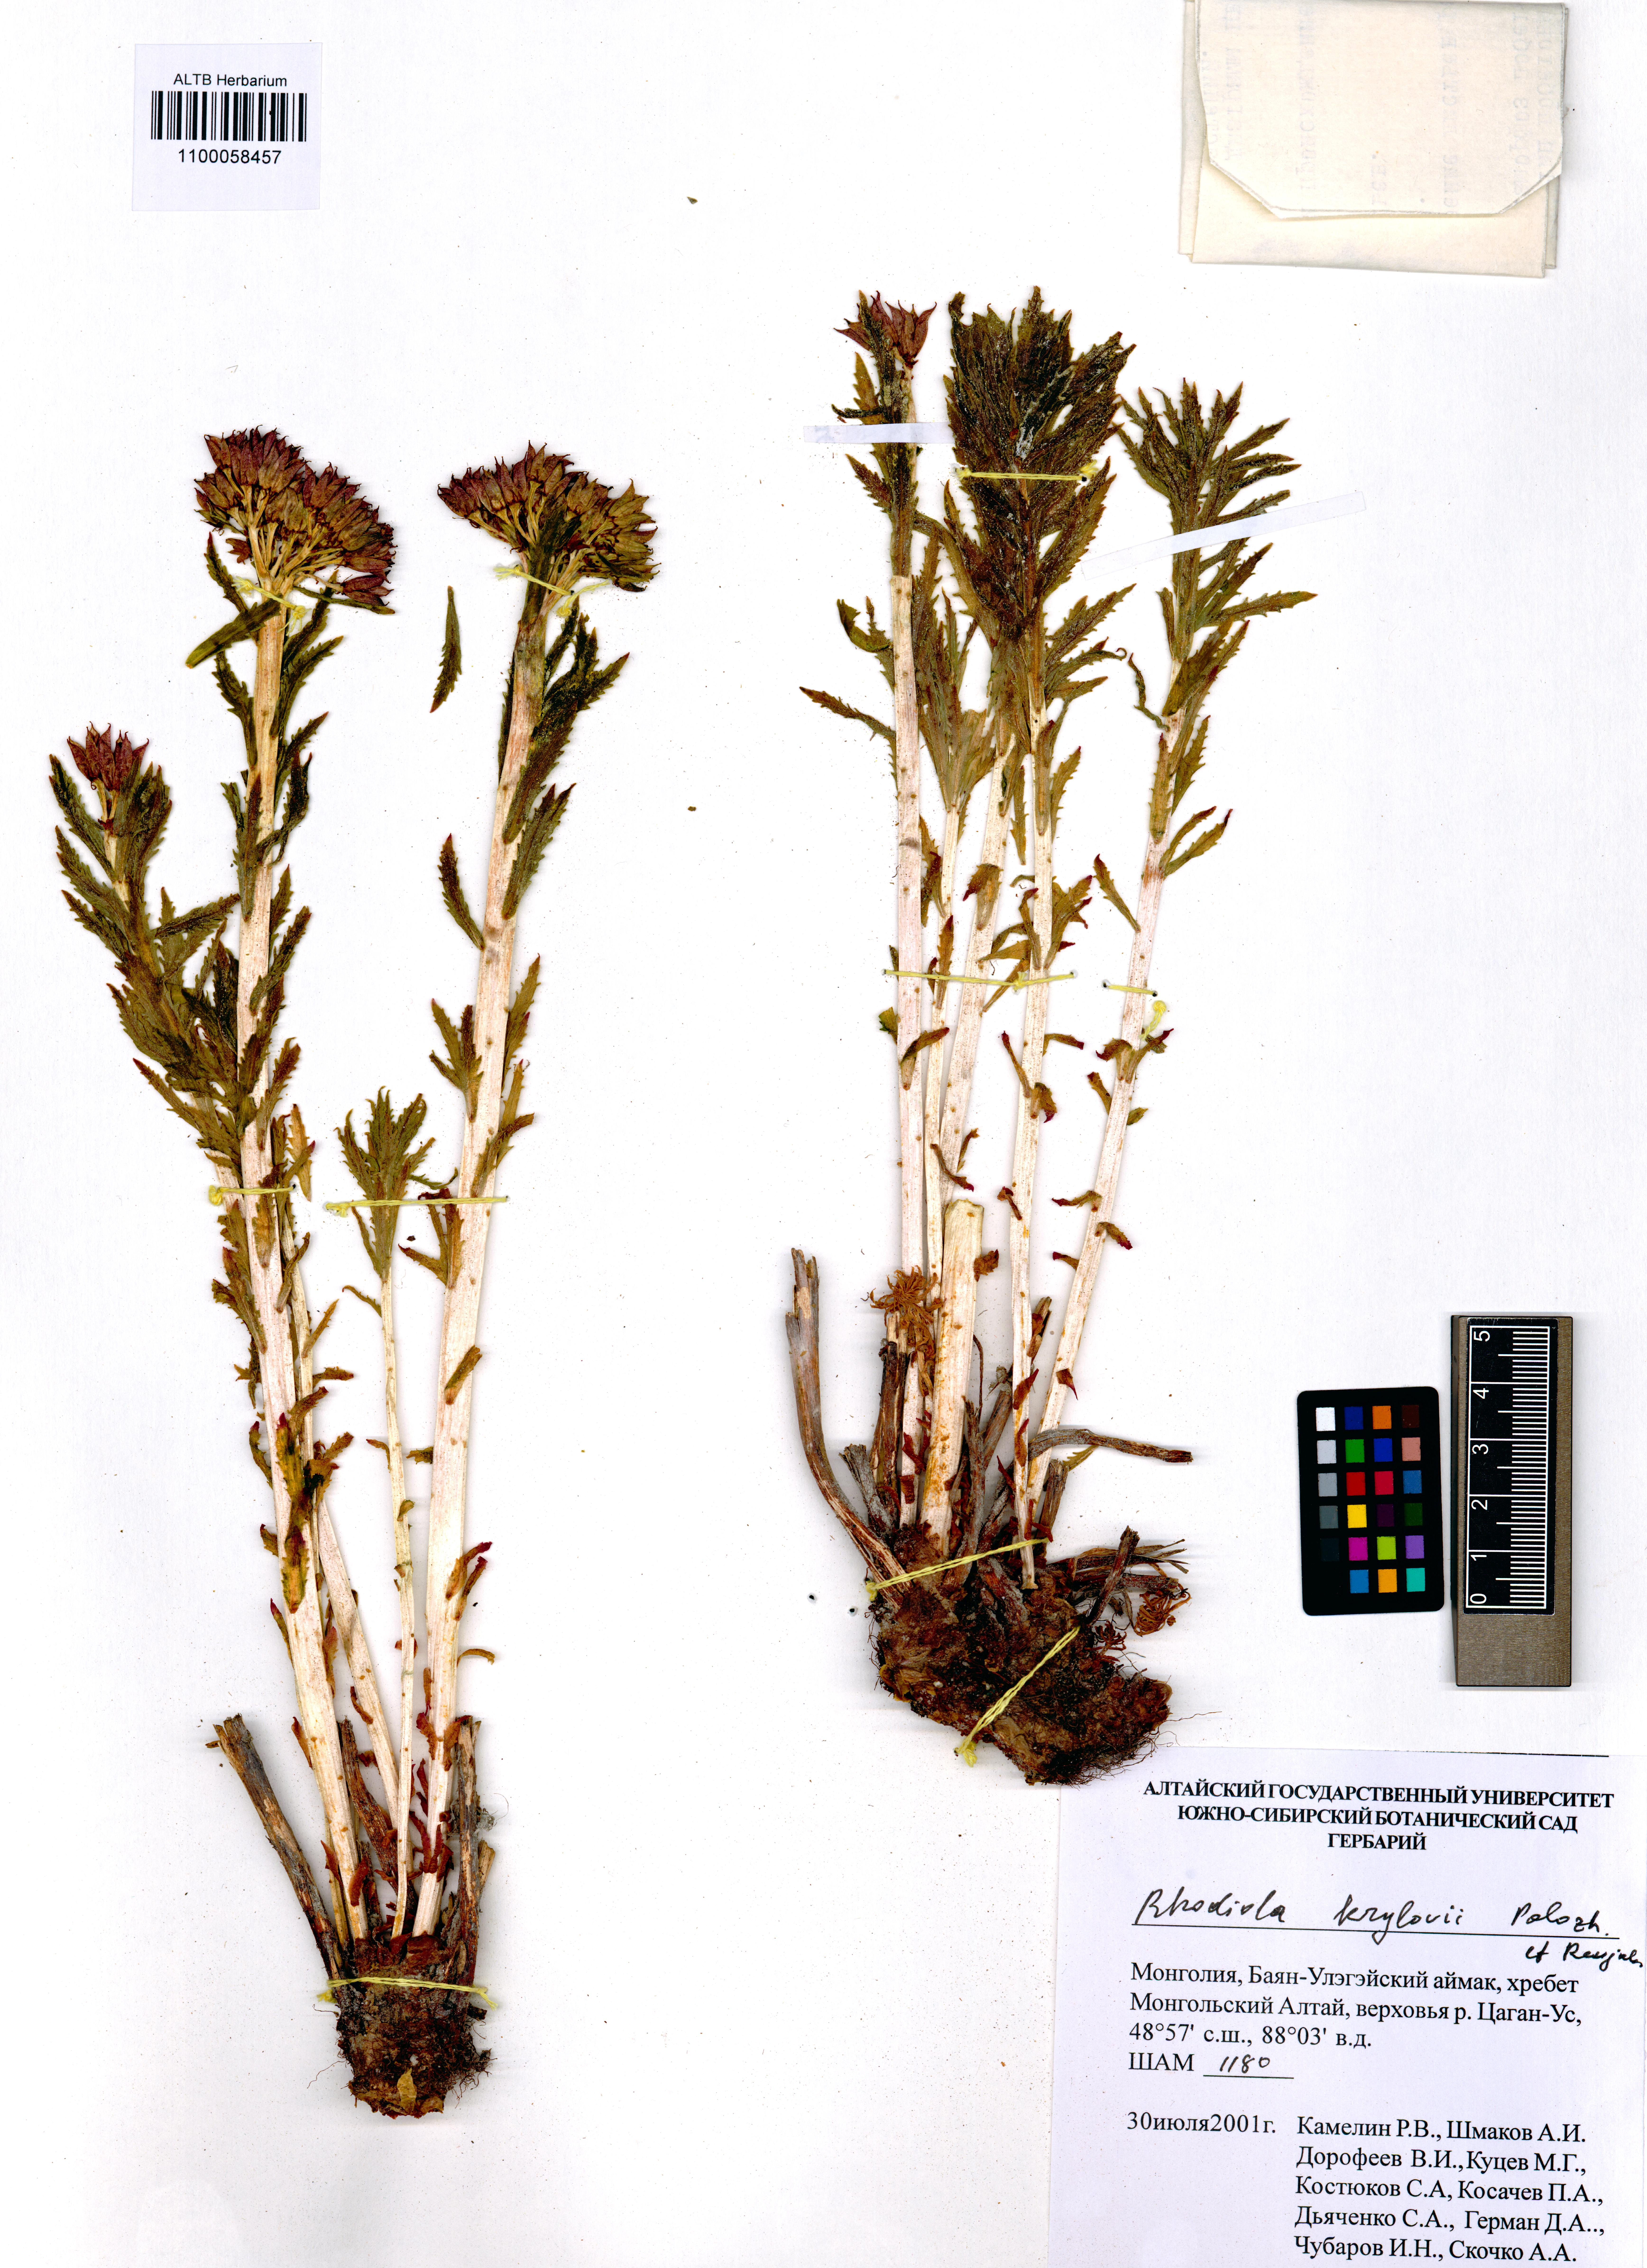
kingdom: Plantae
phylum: Tracheophyta
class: Magnoliopsida
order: Saxifragales
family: Crassulaceae
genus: Rhodiola
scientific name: Rhodiola stephani
